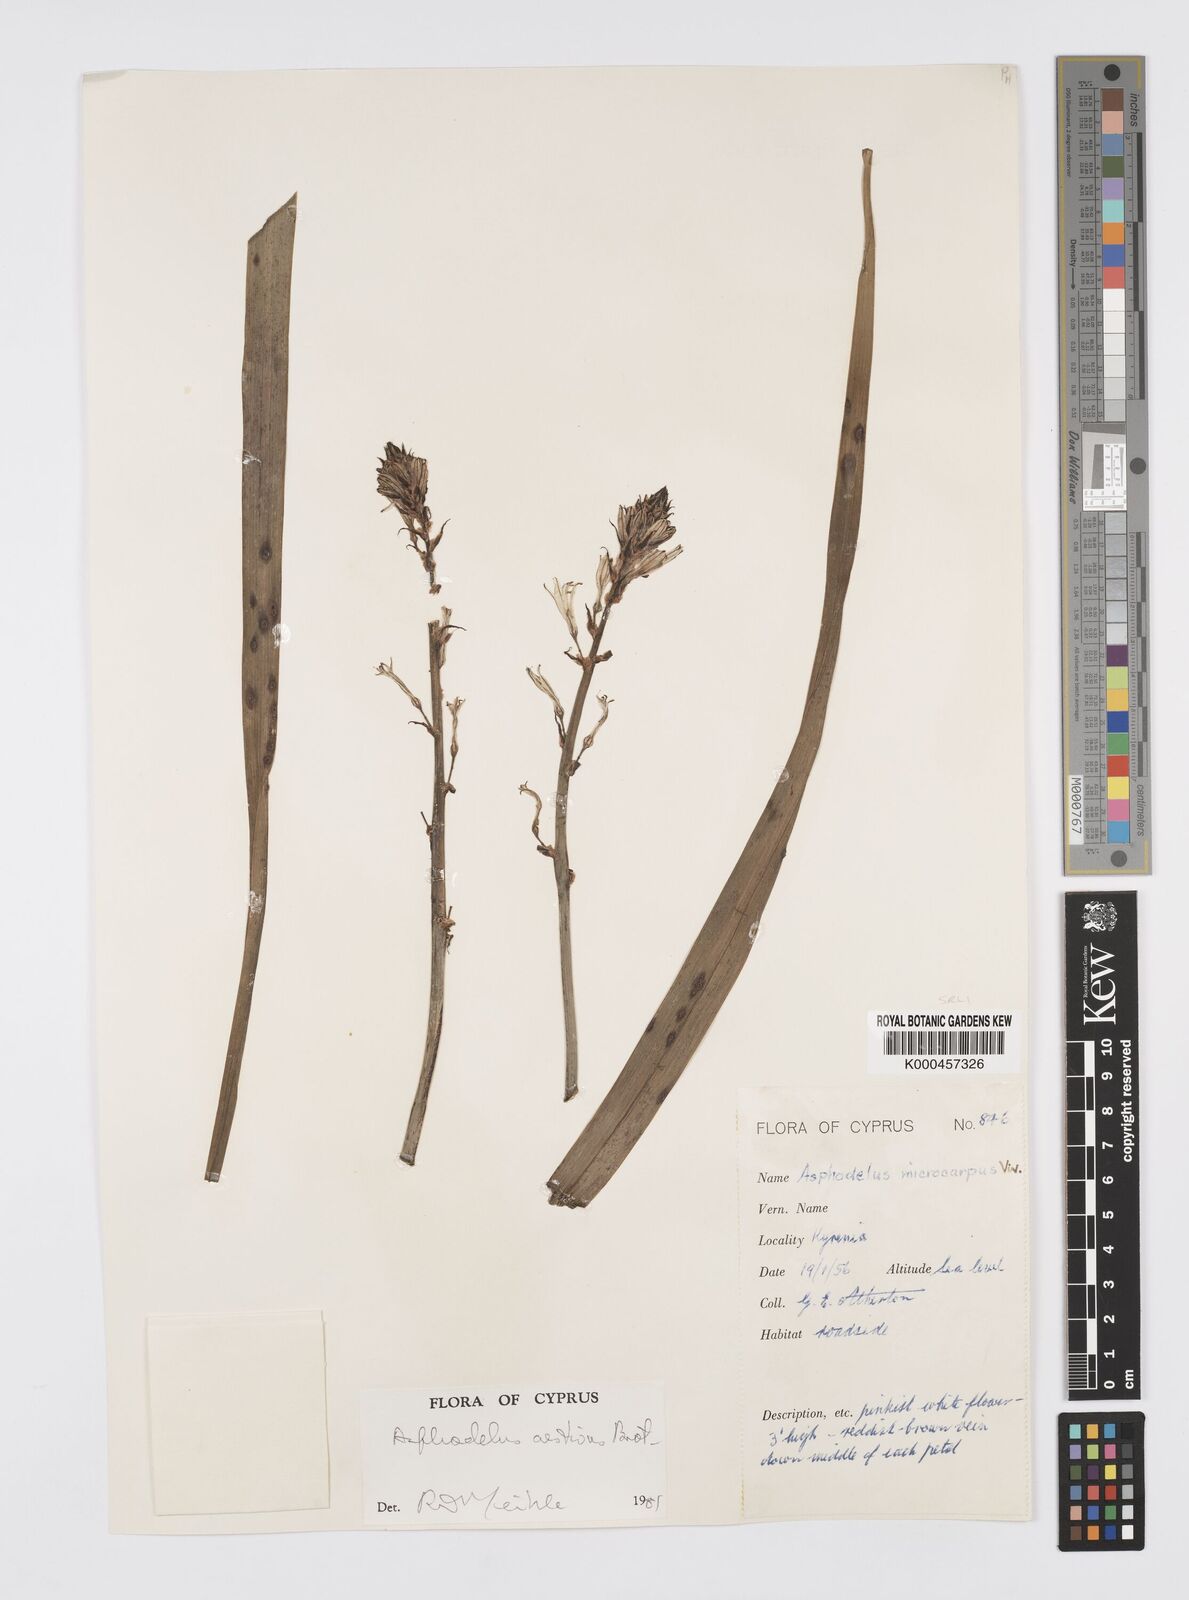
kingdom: Plantae
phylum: Tracheophyta
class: Liliopsida
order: Asparagales
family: Asphodelaceae
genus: Asphodelus
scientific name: Asphodelus aestivus
